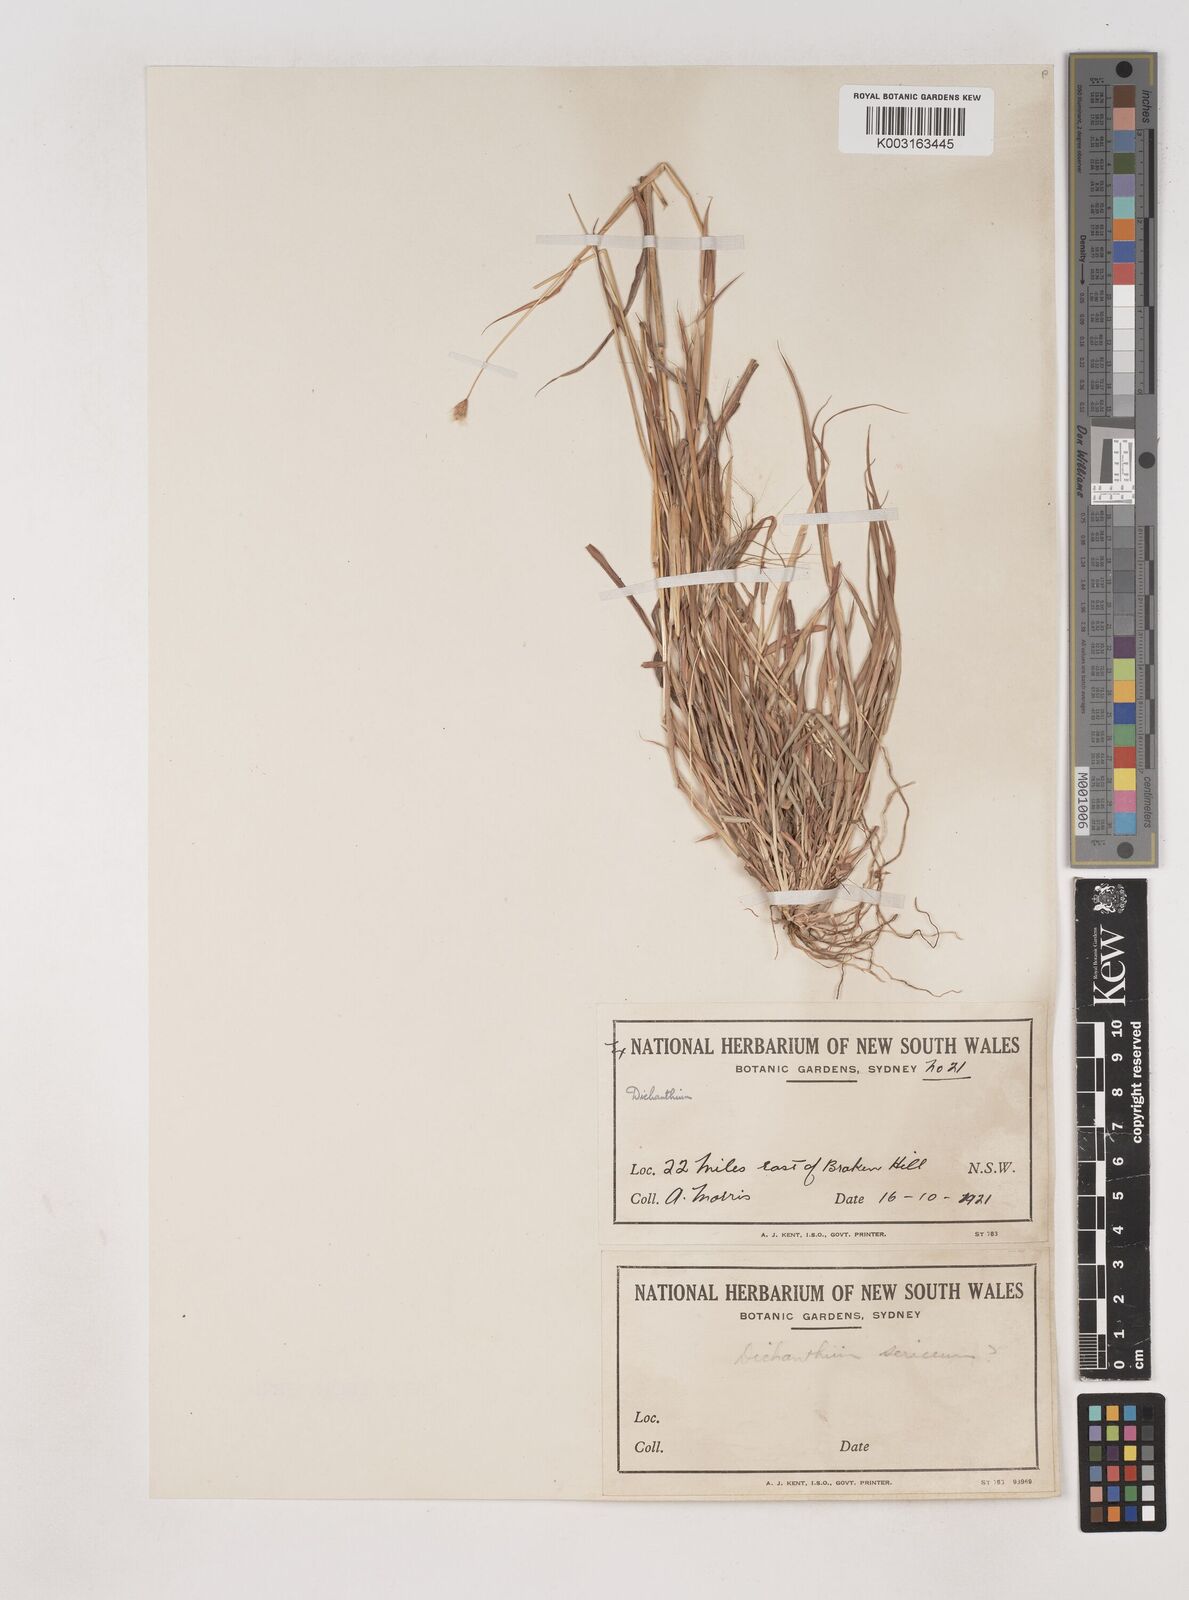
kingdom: Plantae
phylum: Tracheophyta
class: Liliopsida
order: Poales
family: Poaceae
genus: Dichanthium
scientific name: Dichanthium sericeum
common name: Silky bluestem
